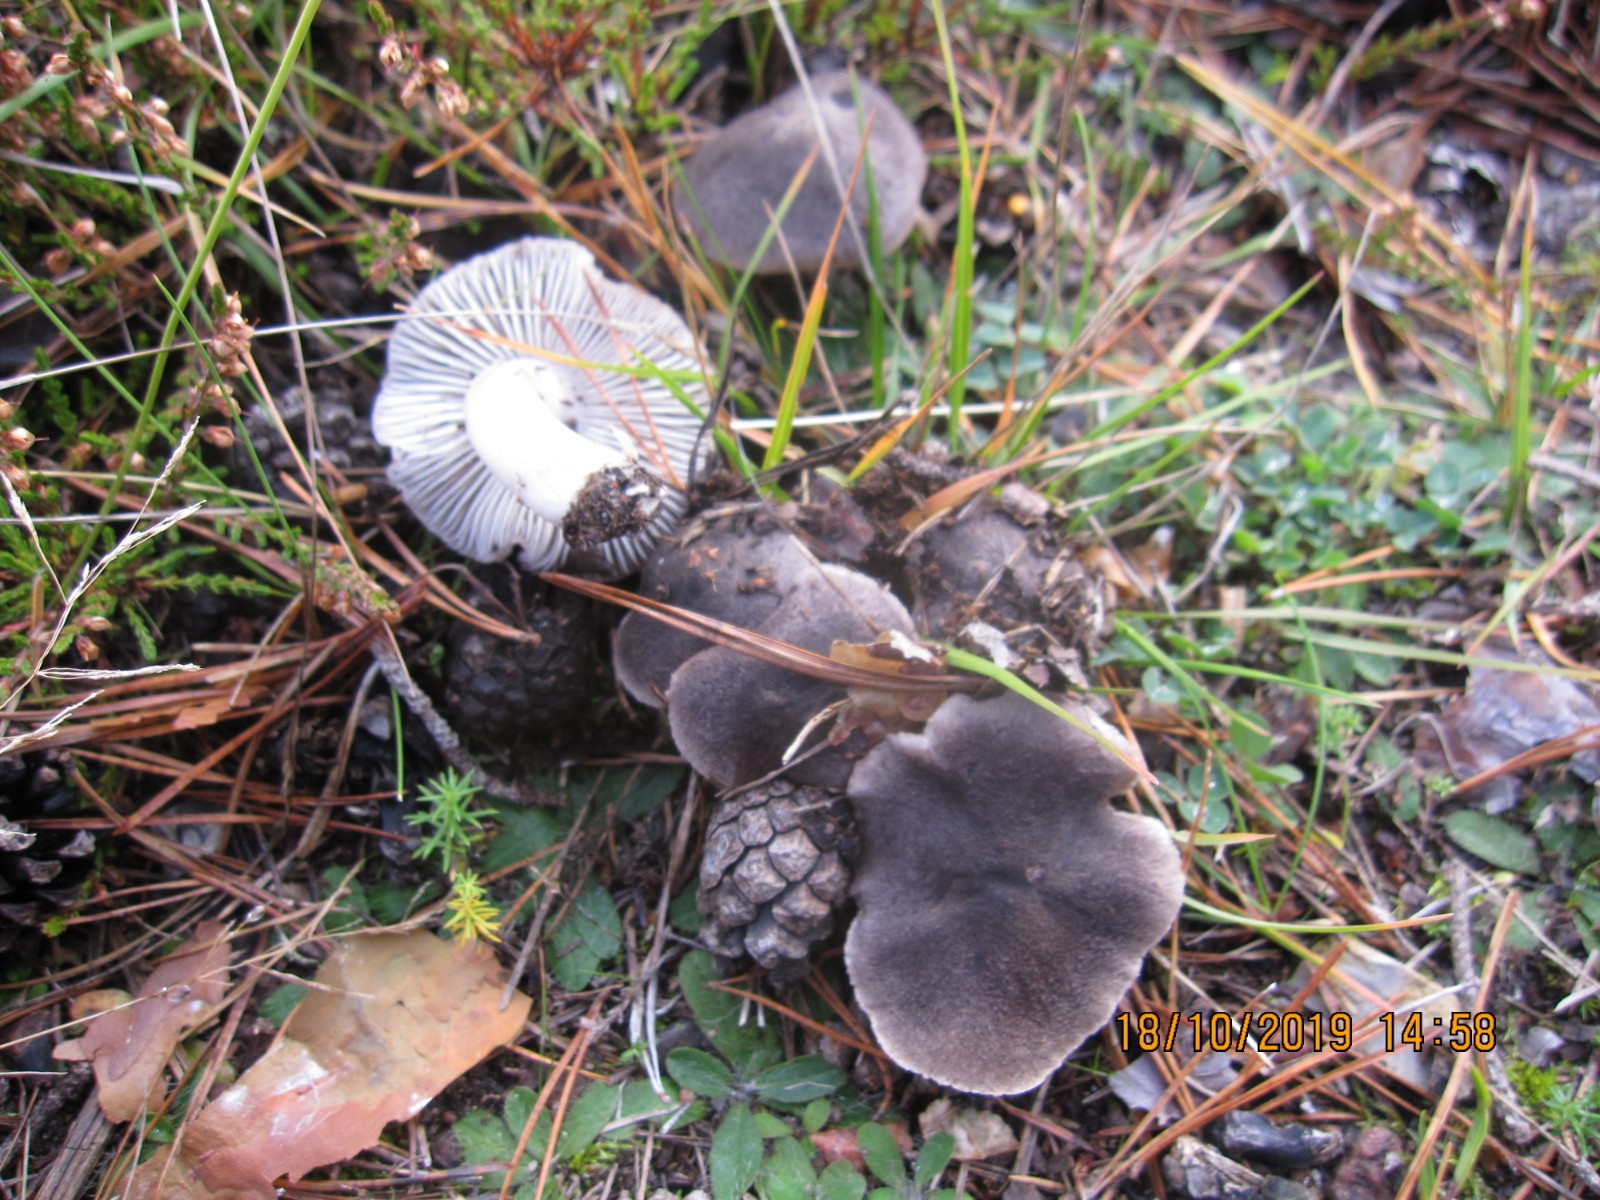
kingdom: Fungi
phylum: Basidiomycota
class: Agaricomycetes
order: Agaricales
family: Tricholomataceae
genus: Tricholoma
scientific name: Tricholoma terreum
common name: jordfarvet ridderhat
